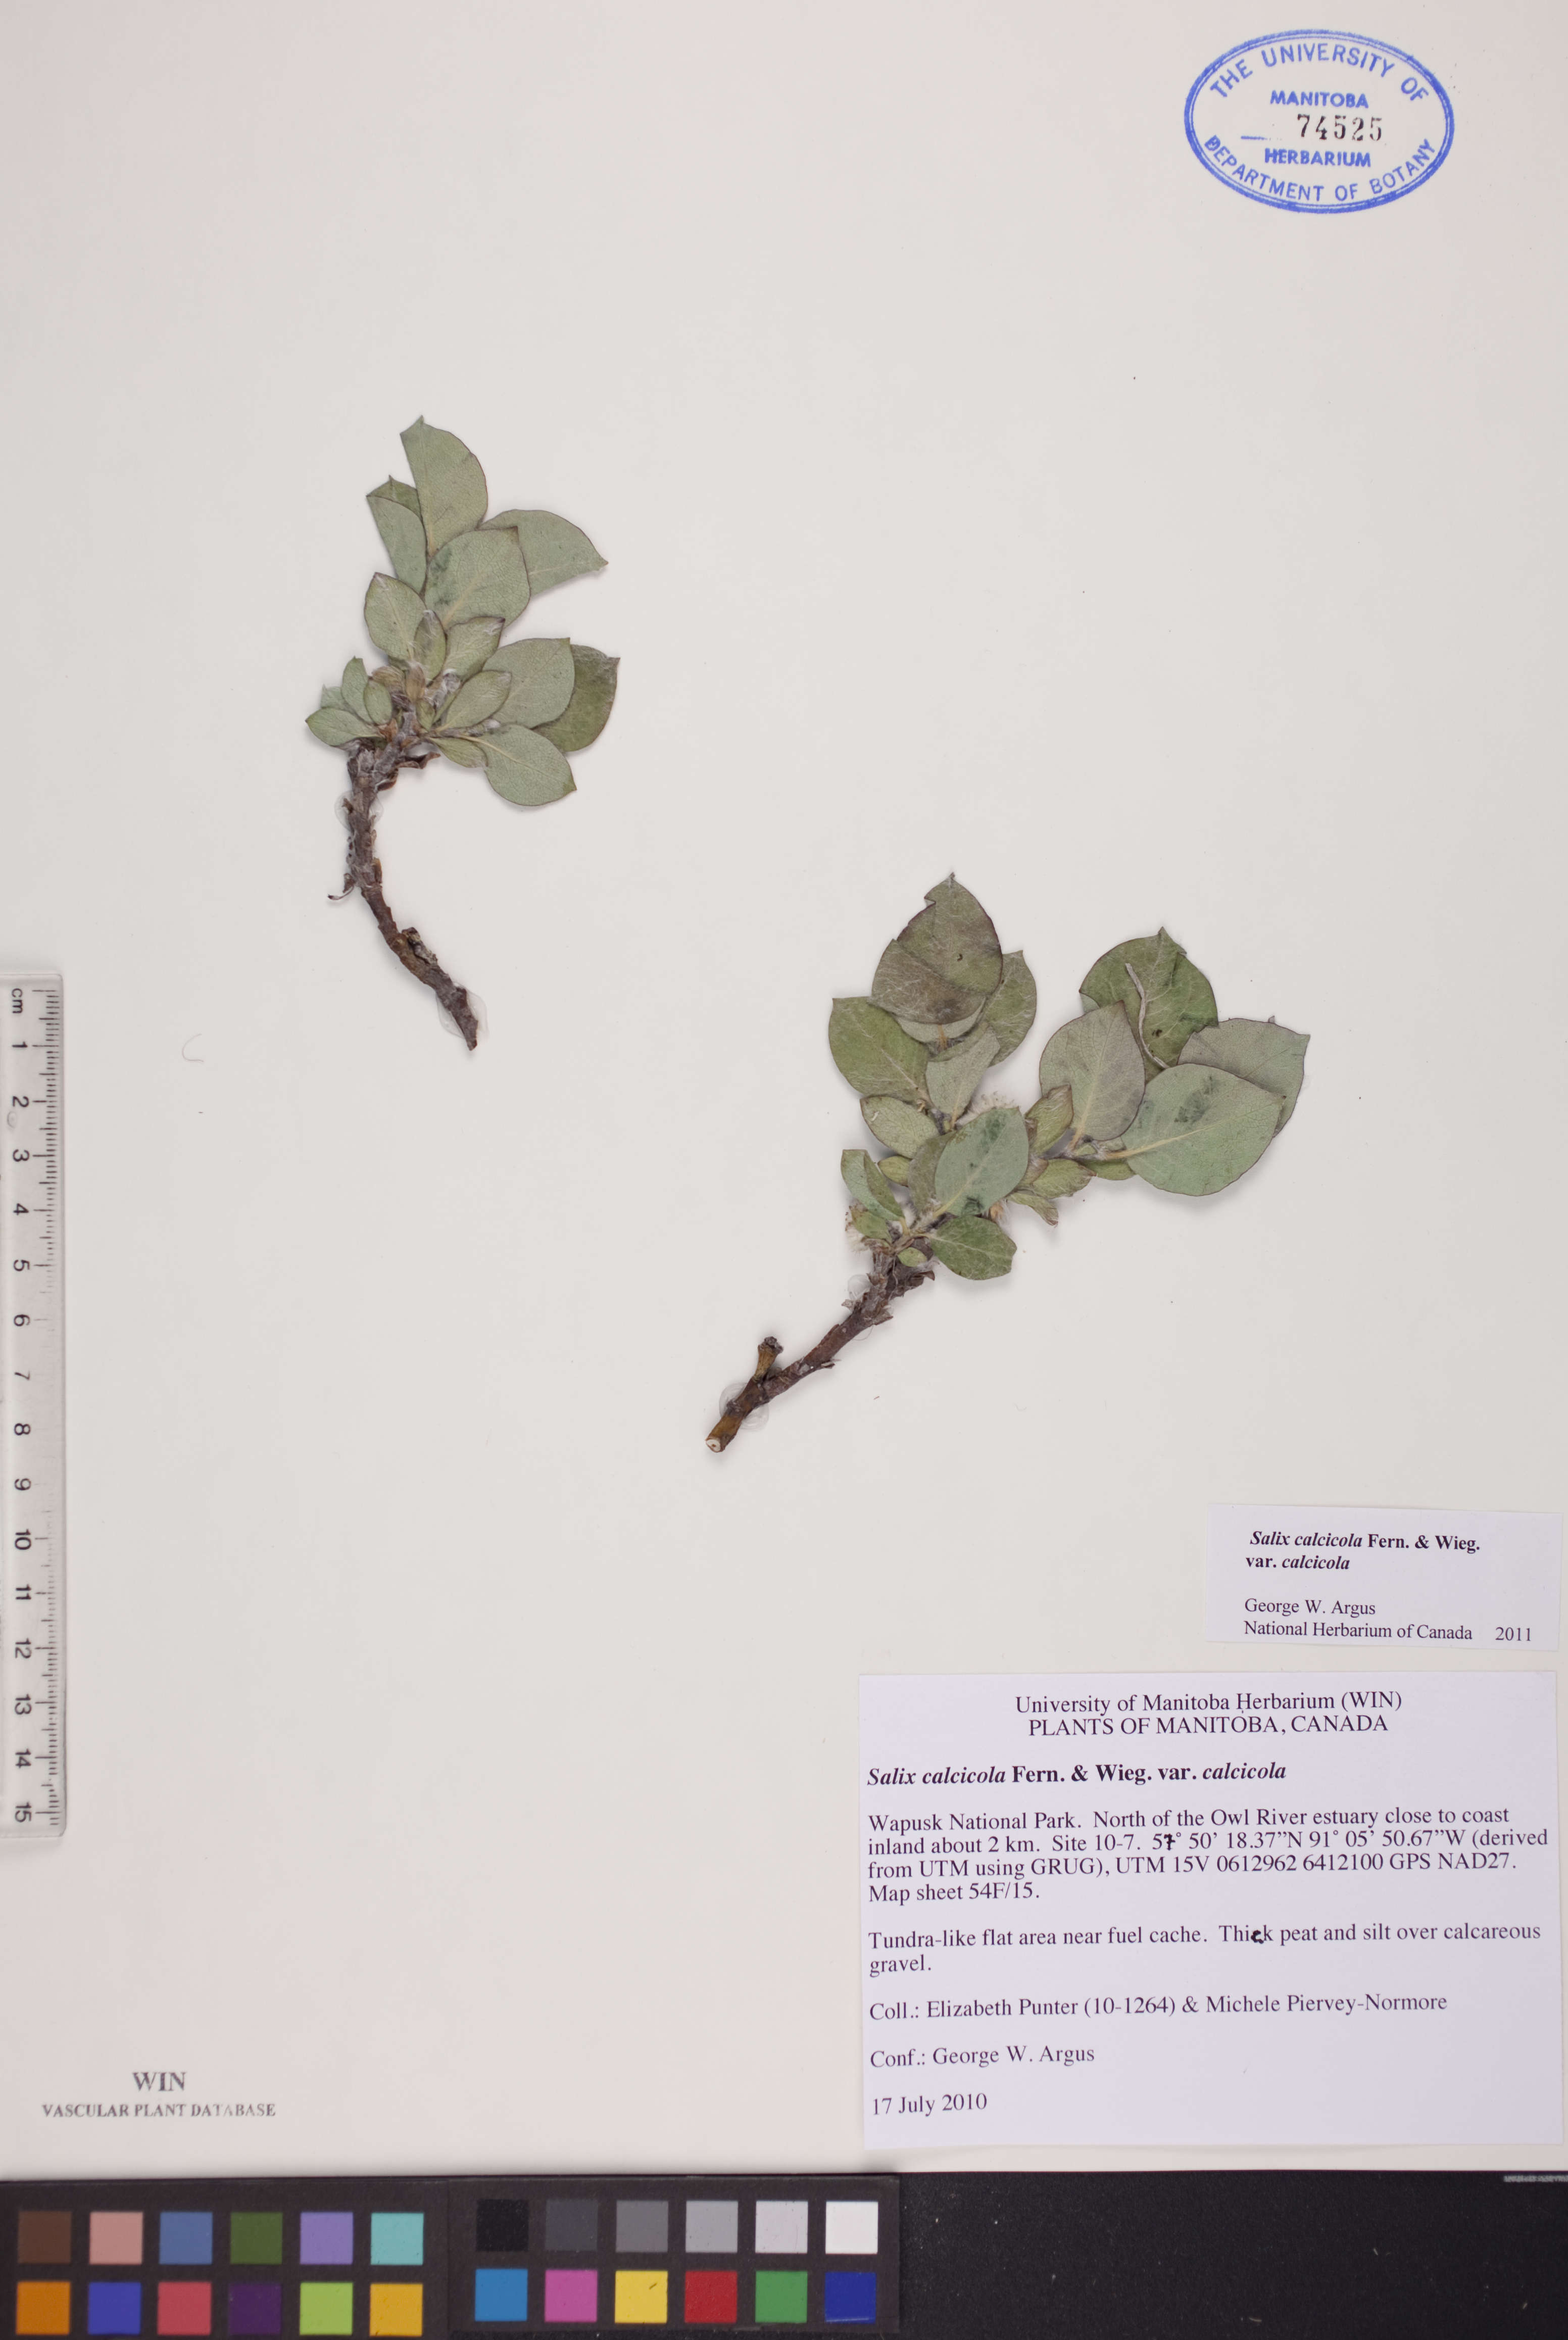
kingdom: Plantae
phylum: Tracheophyta
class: Magnoliopsida
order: Malpighiales
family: Salicaceae
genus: Salix
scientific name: Salix calcicola
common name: Calcareous willow
